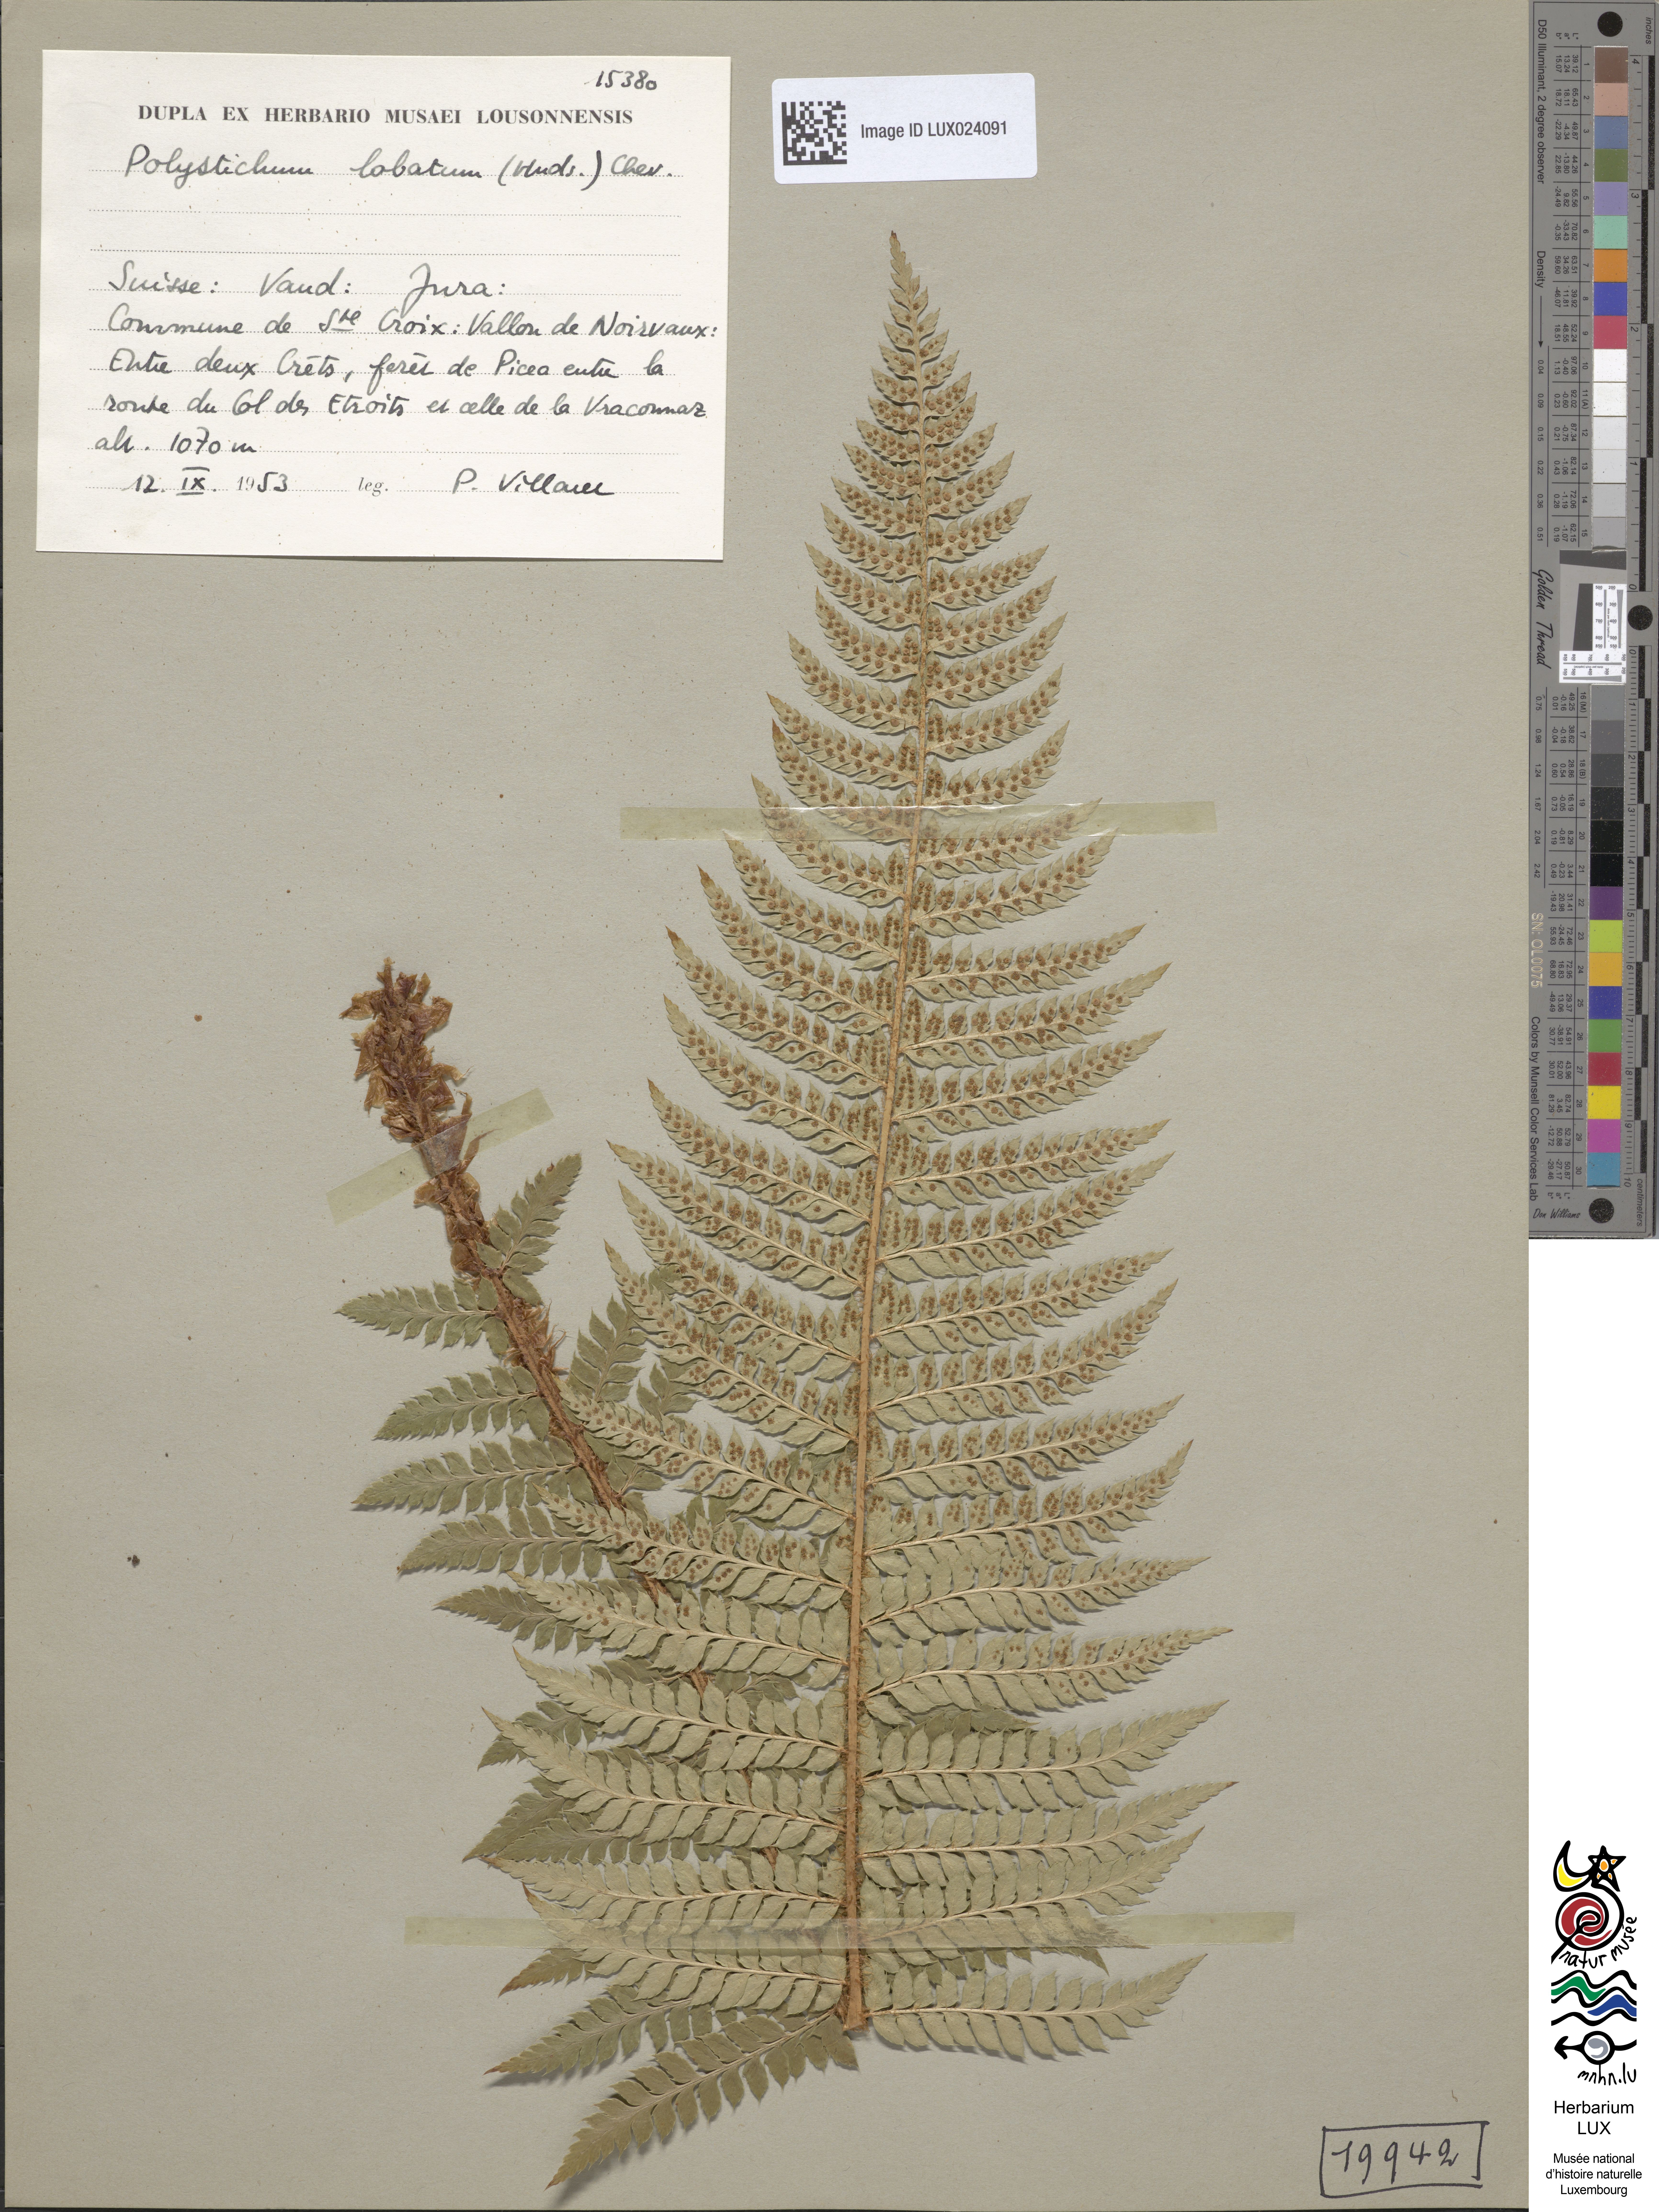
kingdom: Plantae
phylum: Tracheophyta
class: Polypodiopsida
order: Polypodiales
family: Dryopteridaceae
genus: Polystichum
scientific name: Polystichum aculeatum
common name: Hard shield-fern
